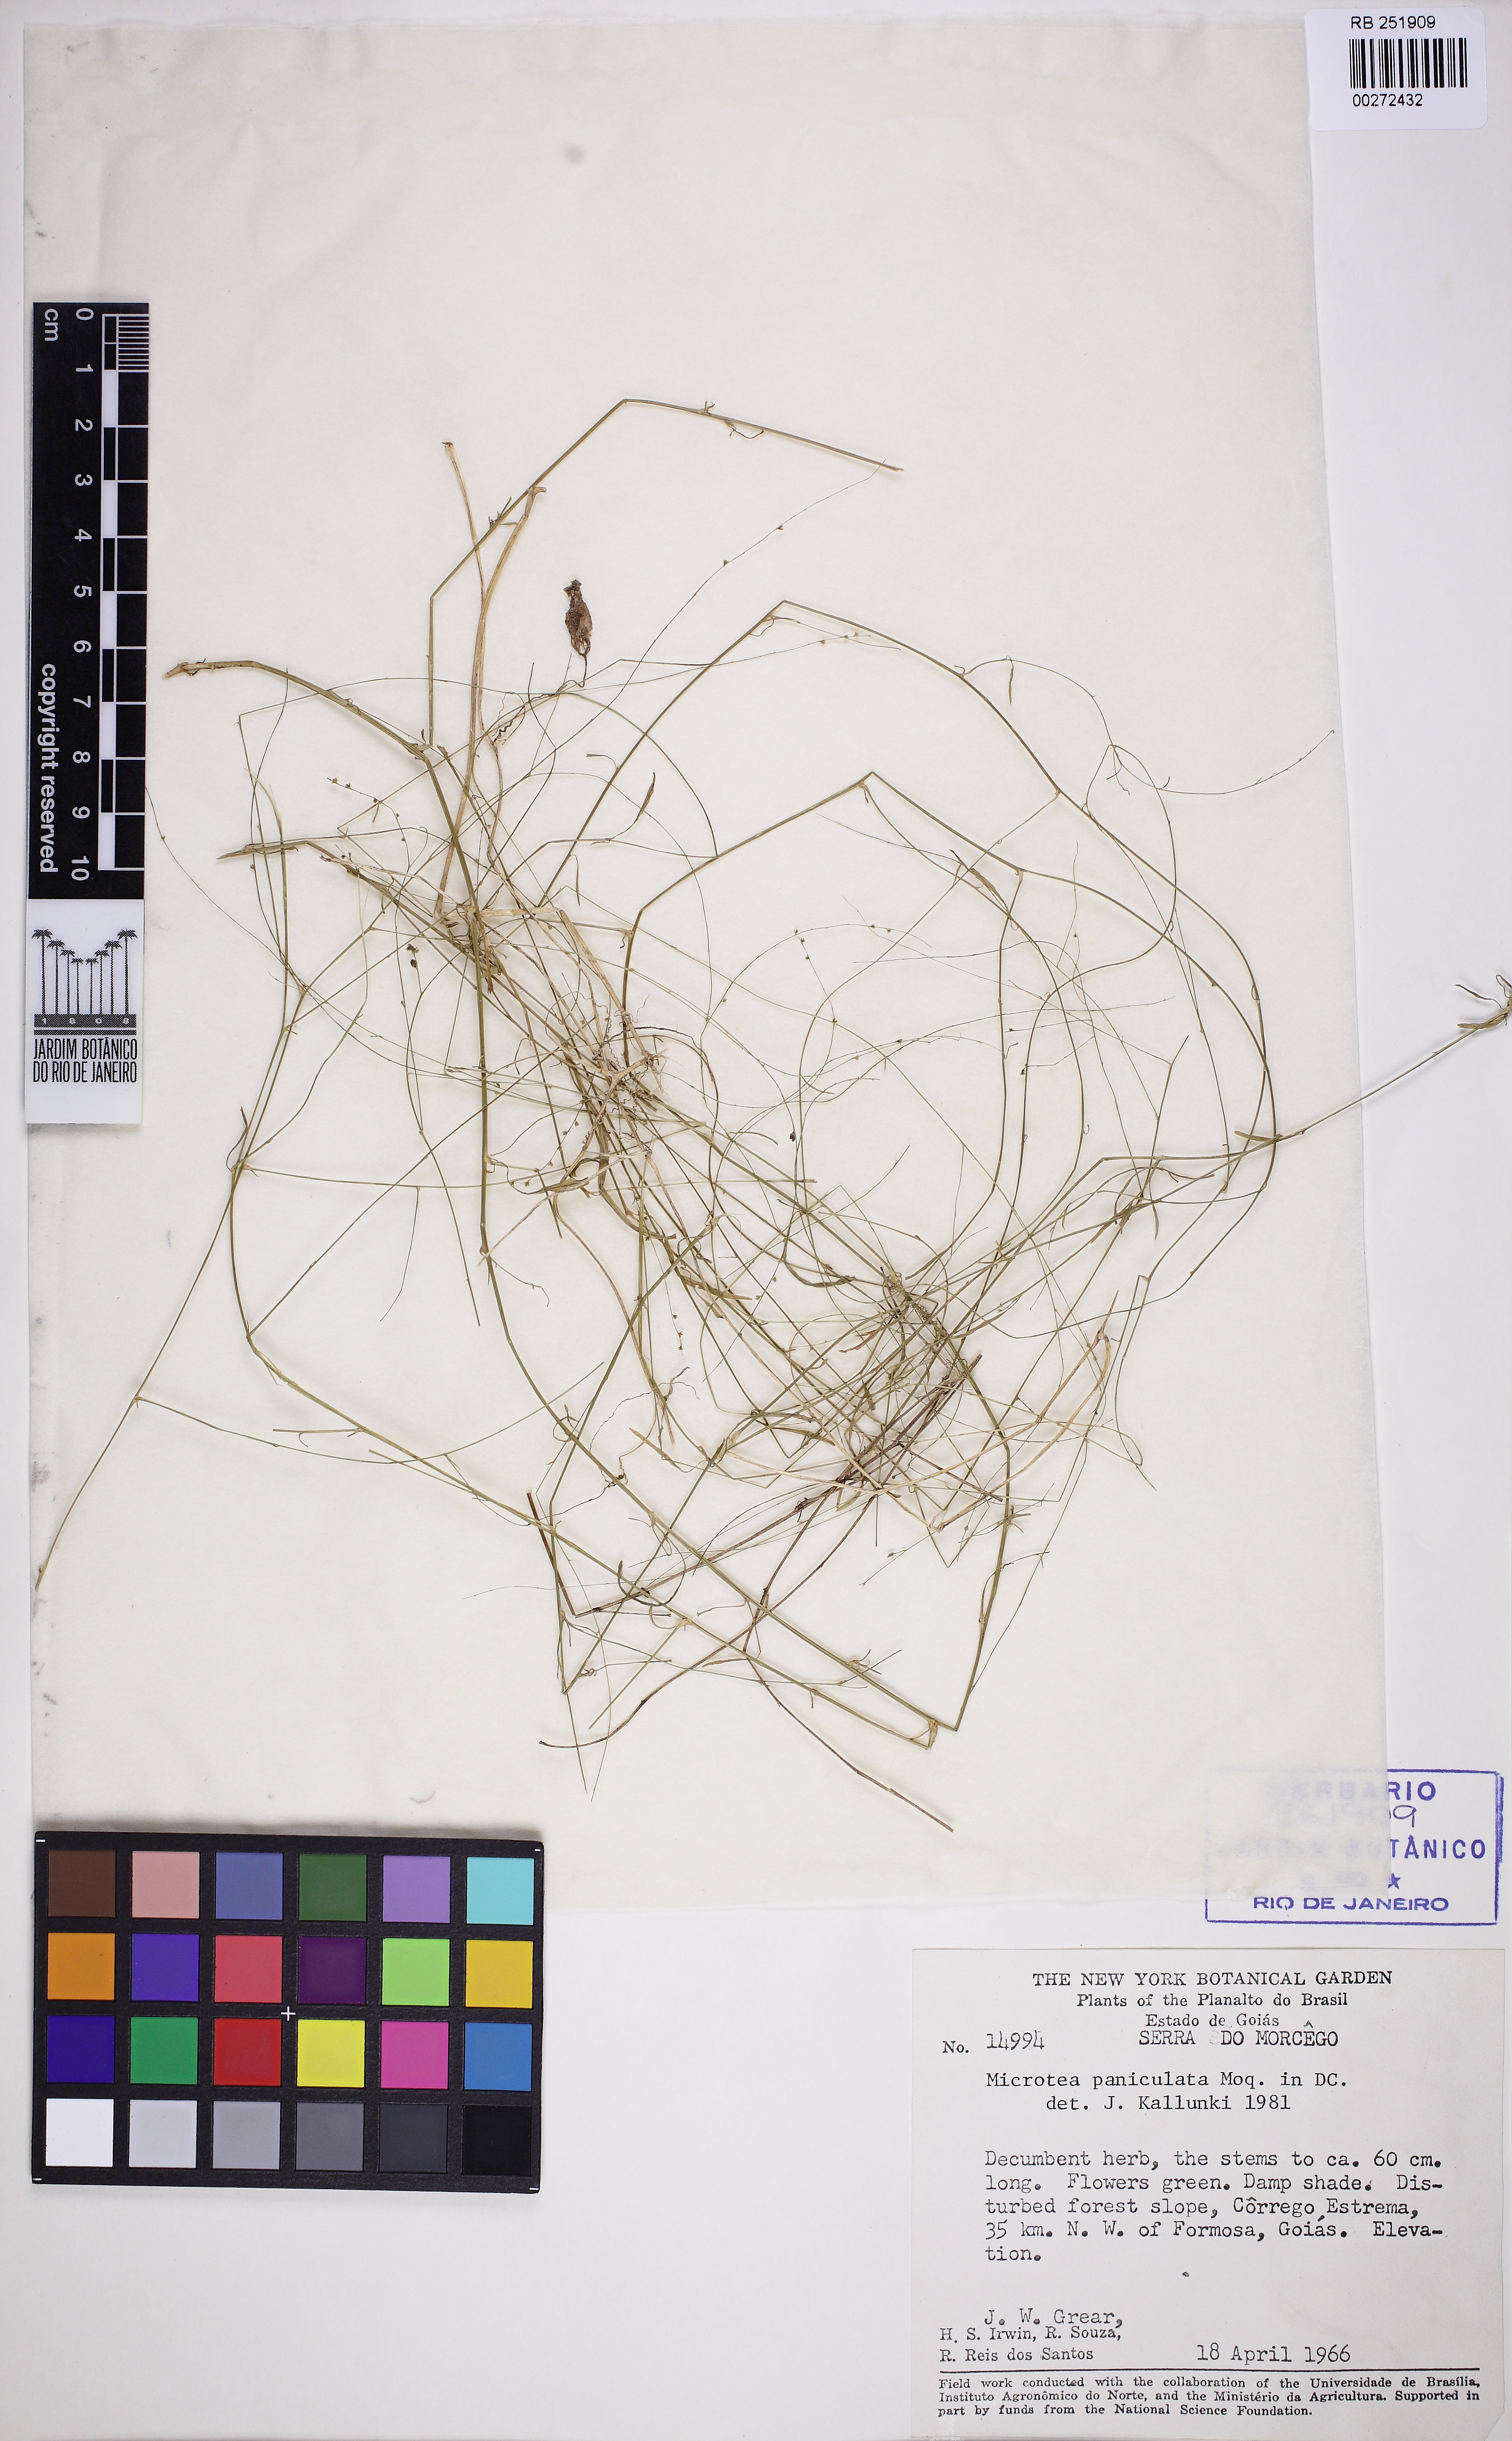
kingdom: Plantae
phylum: Tracheophyta
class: Magnoliopsida
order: Caryophyllales
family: Microteaceae
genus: Microtea
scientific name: Microtea paniculata
